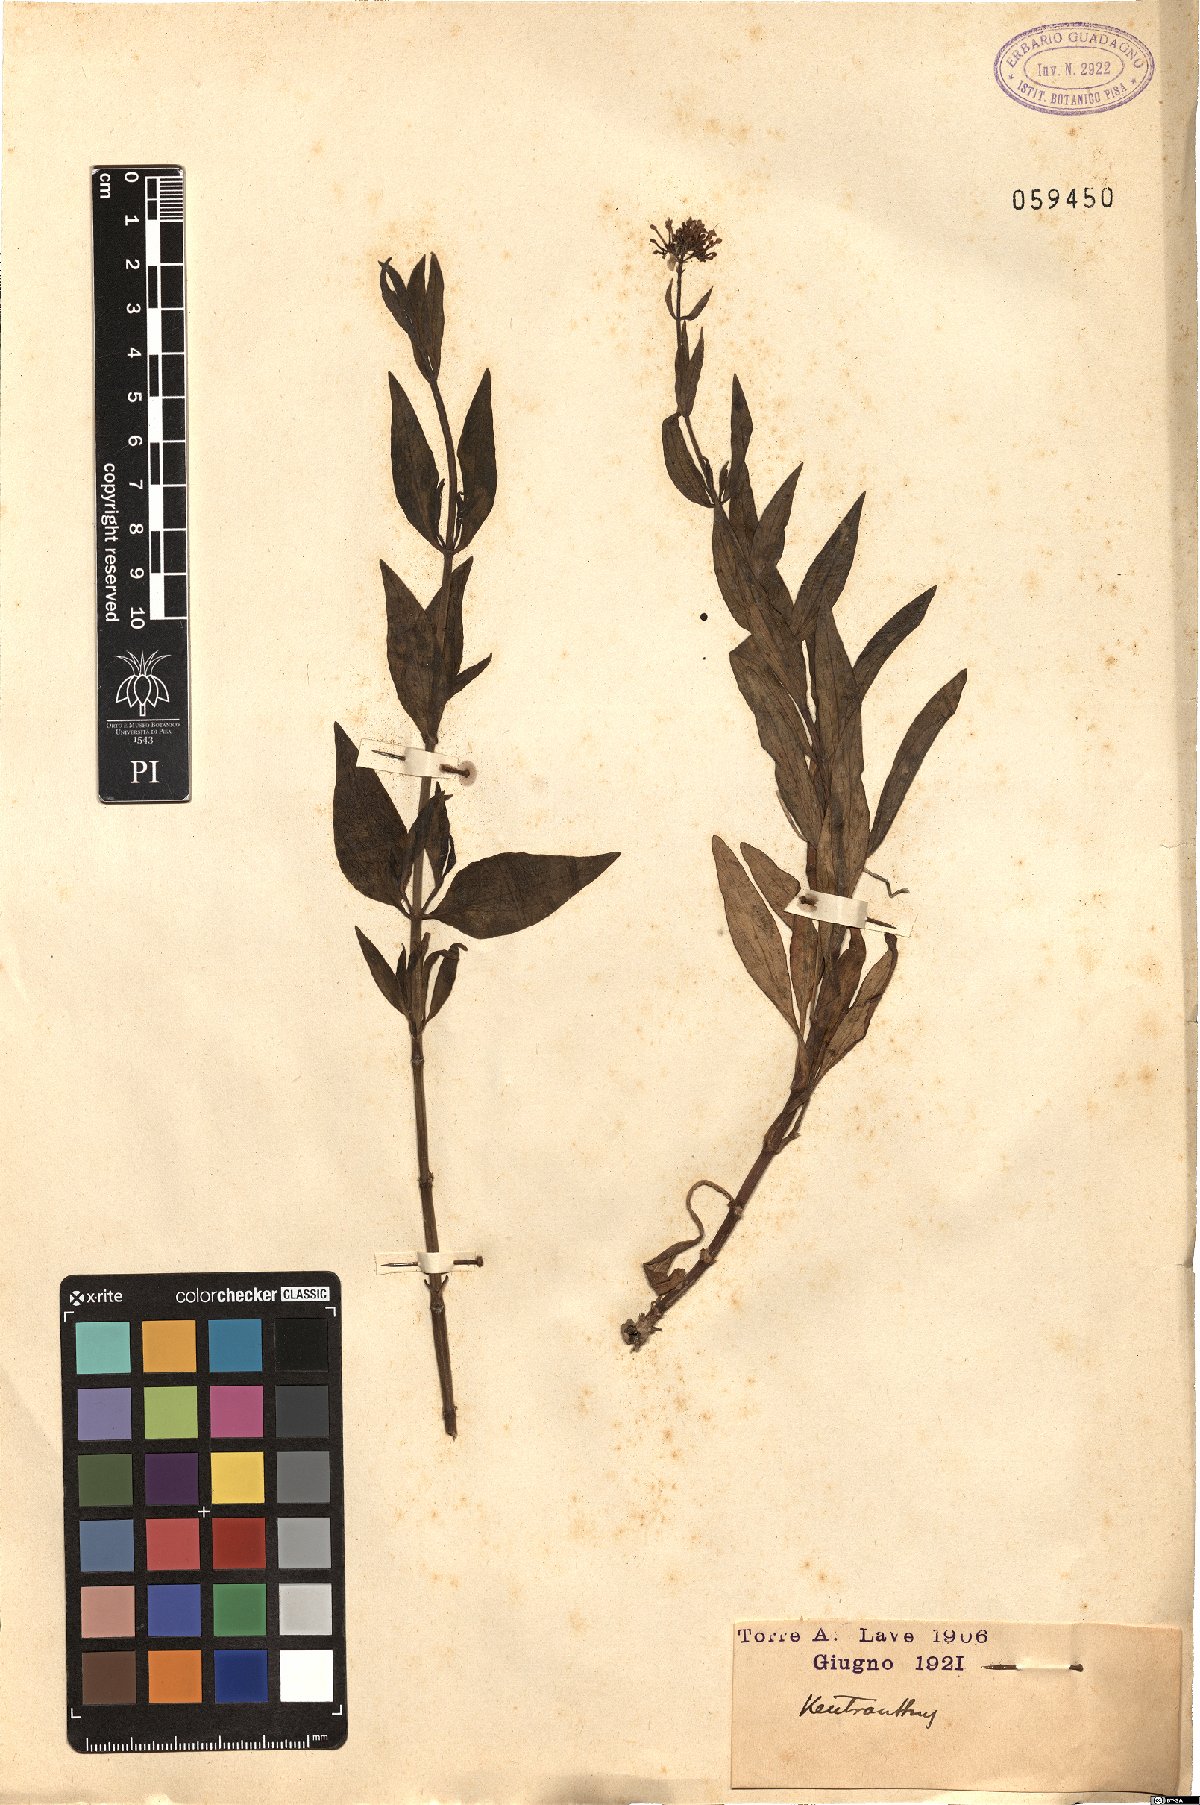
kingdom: Plantae
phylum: Tracheophyta
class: Magnoliopsida
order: Dipsacales
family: Caprifoliaceae
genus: Centranthus
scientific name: Centranthus
